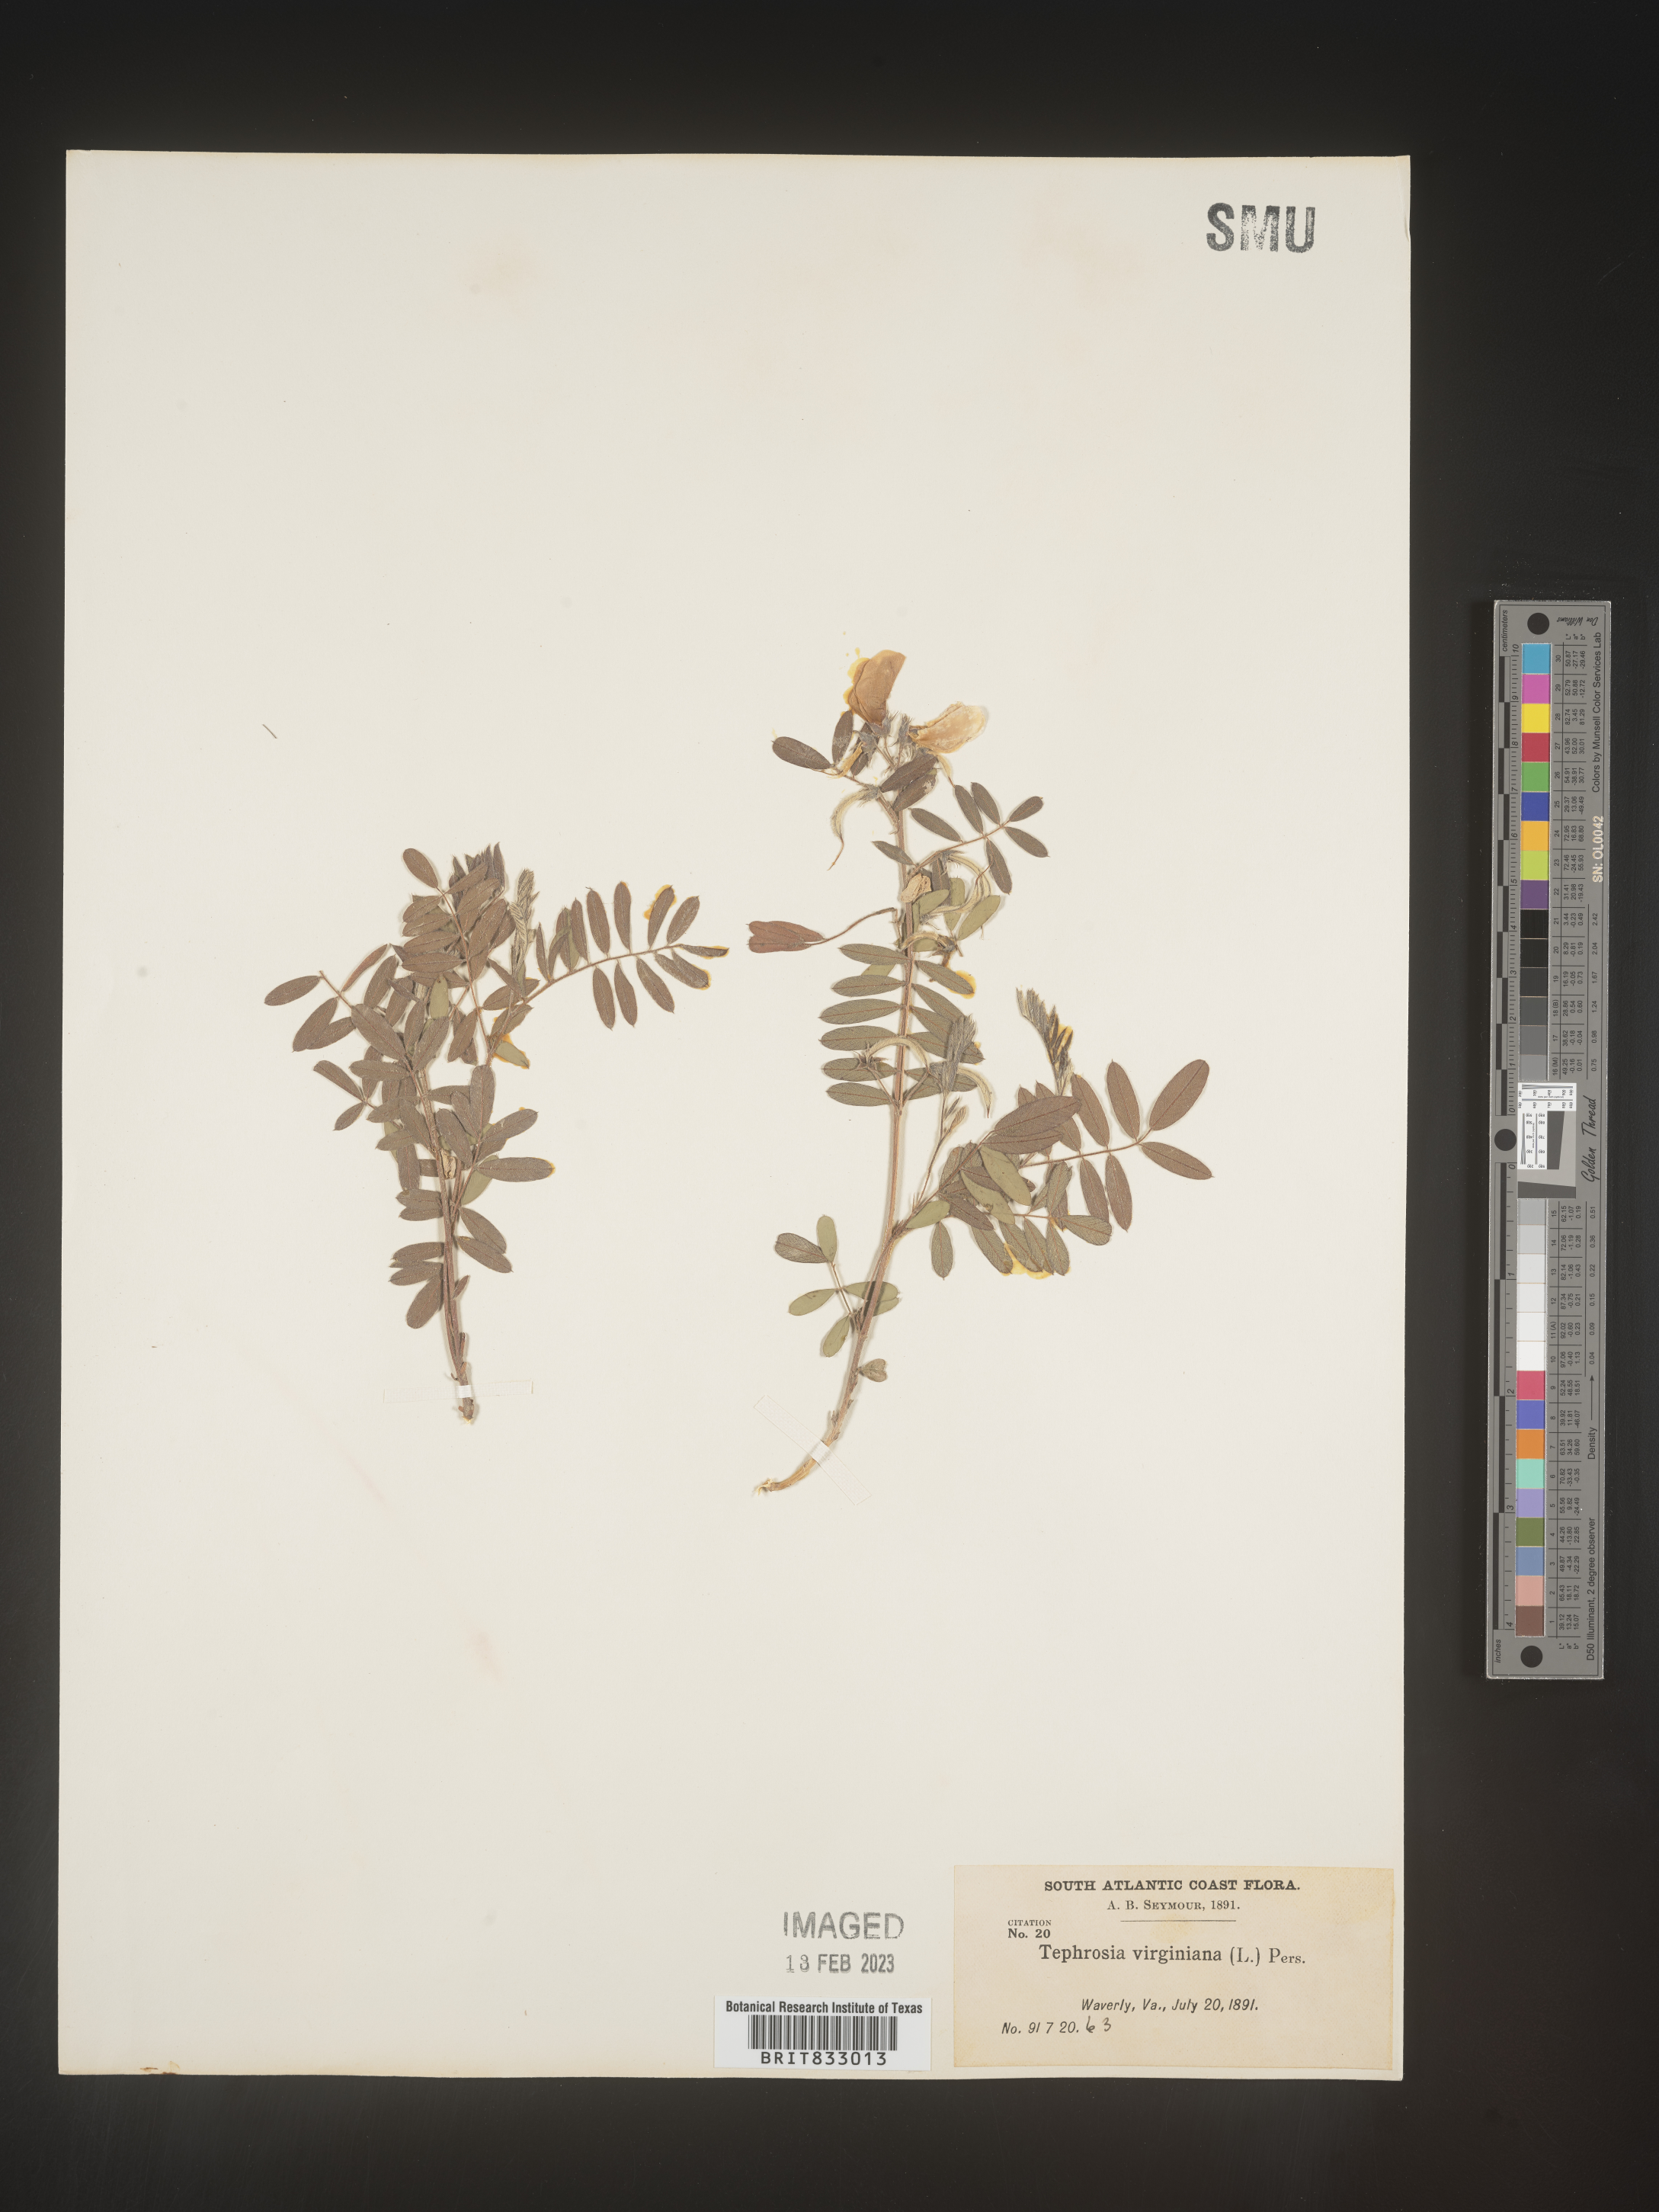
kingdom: Plantae
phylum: Tracheophyta
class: Magnoliopsida
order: Fabales
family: Fabaceae
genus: Tephrosia
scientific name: Tephrosia virginiana
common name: Rabbit-pea
